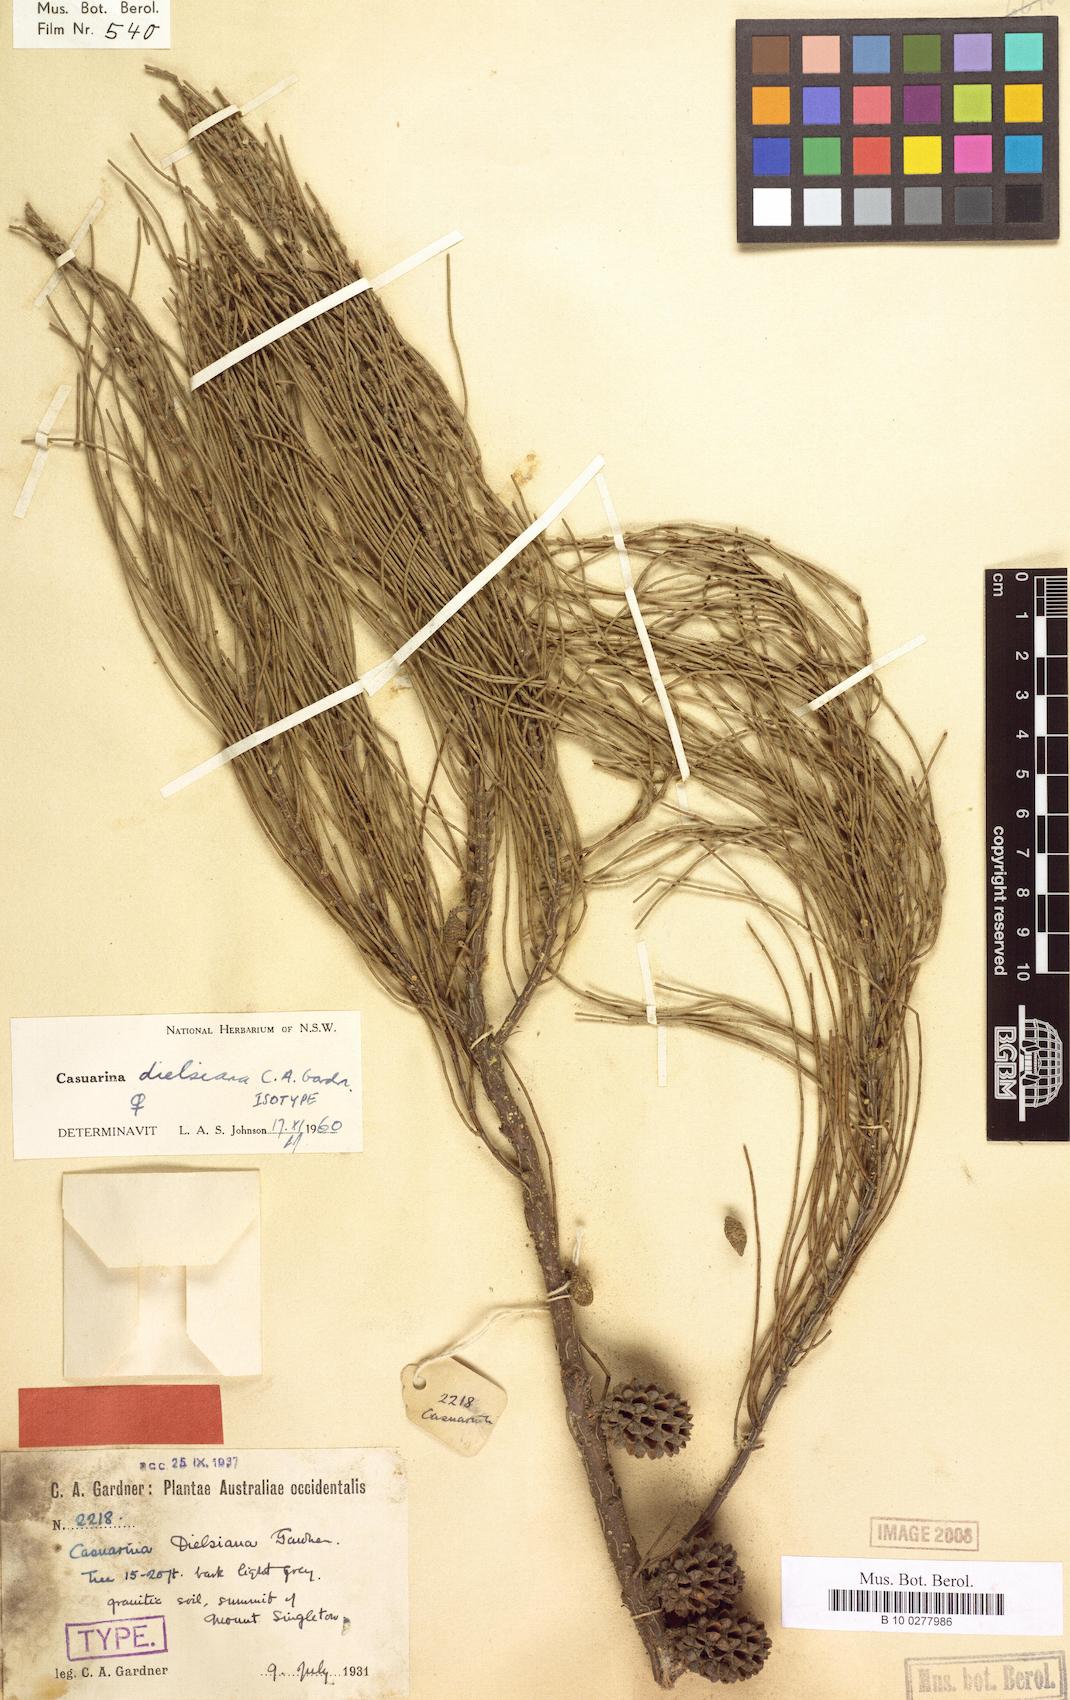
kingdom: Plantae
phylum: Tracheophyta
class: Magnoliopsida
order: Fagales
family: Casuarinaceae
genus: Allocasuarina
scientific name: Allocasuarina dielsiana
